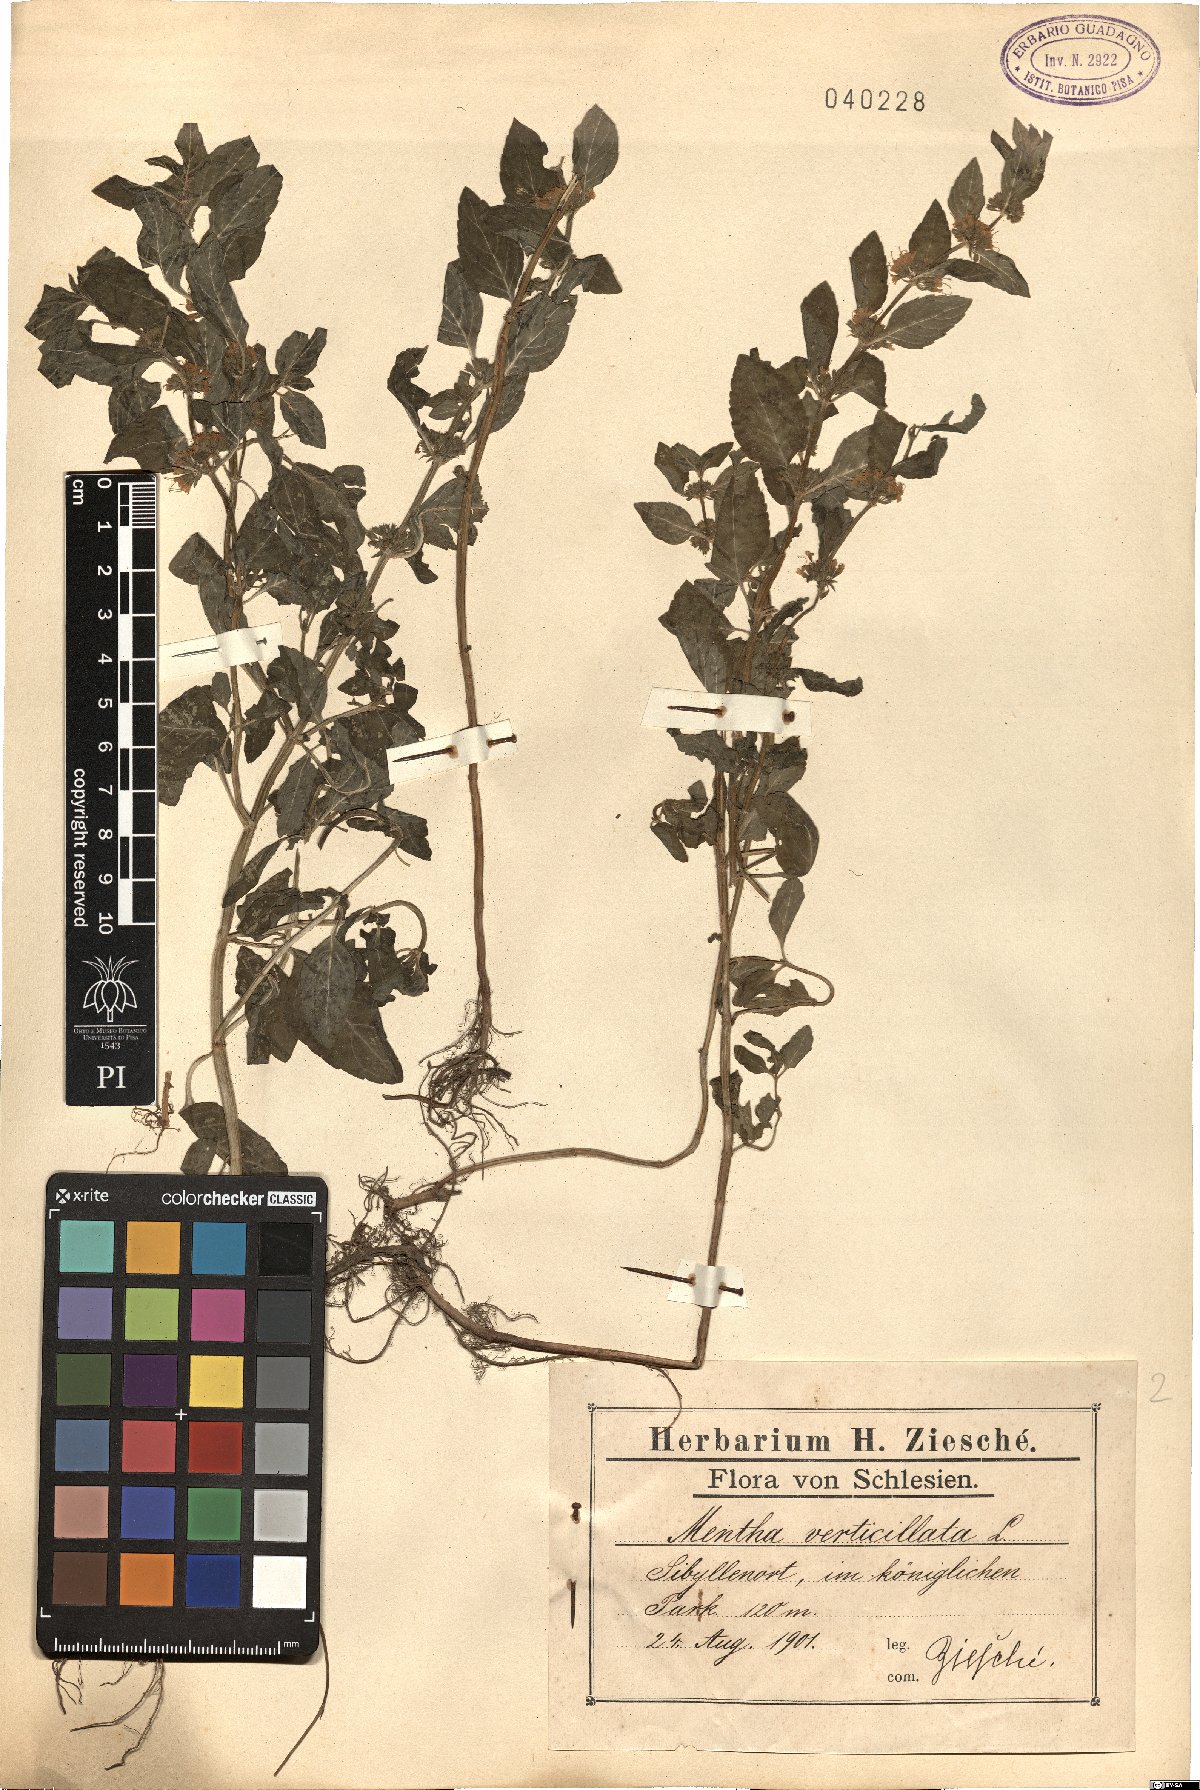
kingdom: Plantae
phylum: Tracheophyta
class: Magnoliopsida
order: Lamiales
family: Lamiaceae
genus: Mentha
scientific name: Mentha verticillata
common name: Mint
